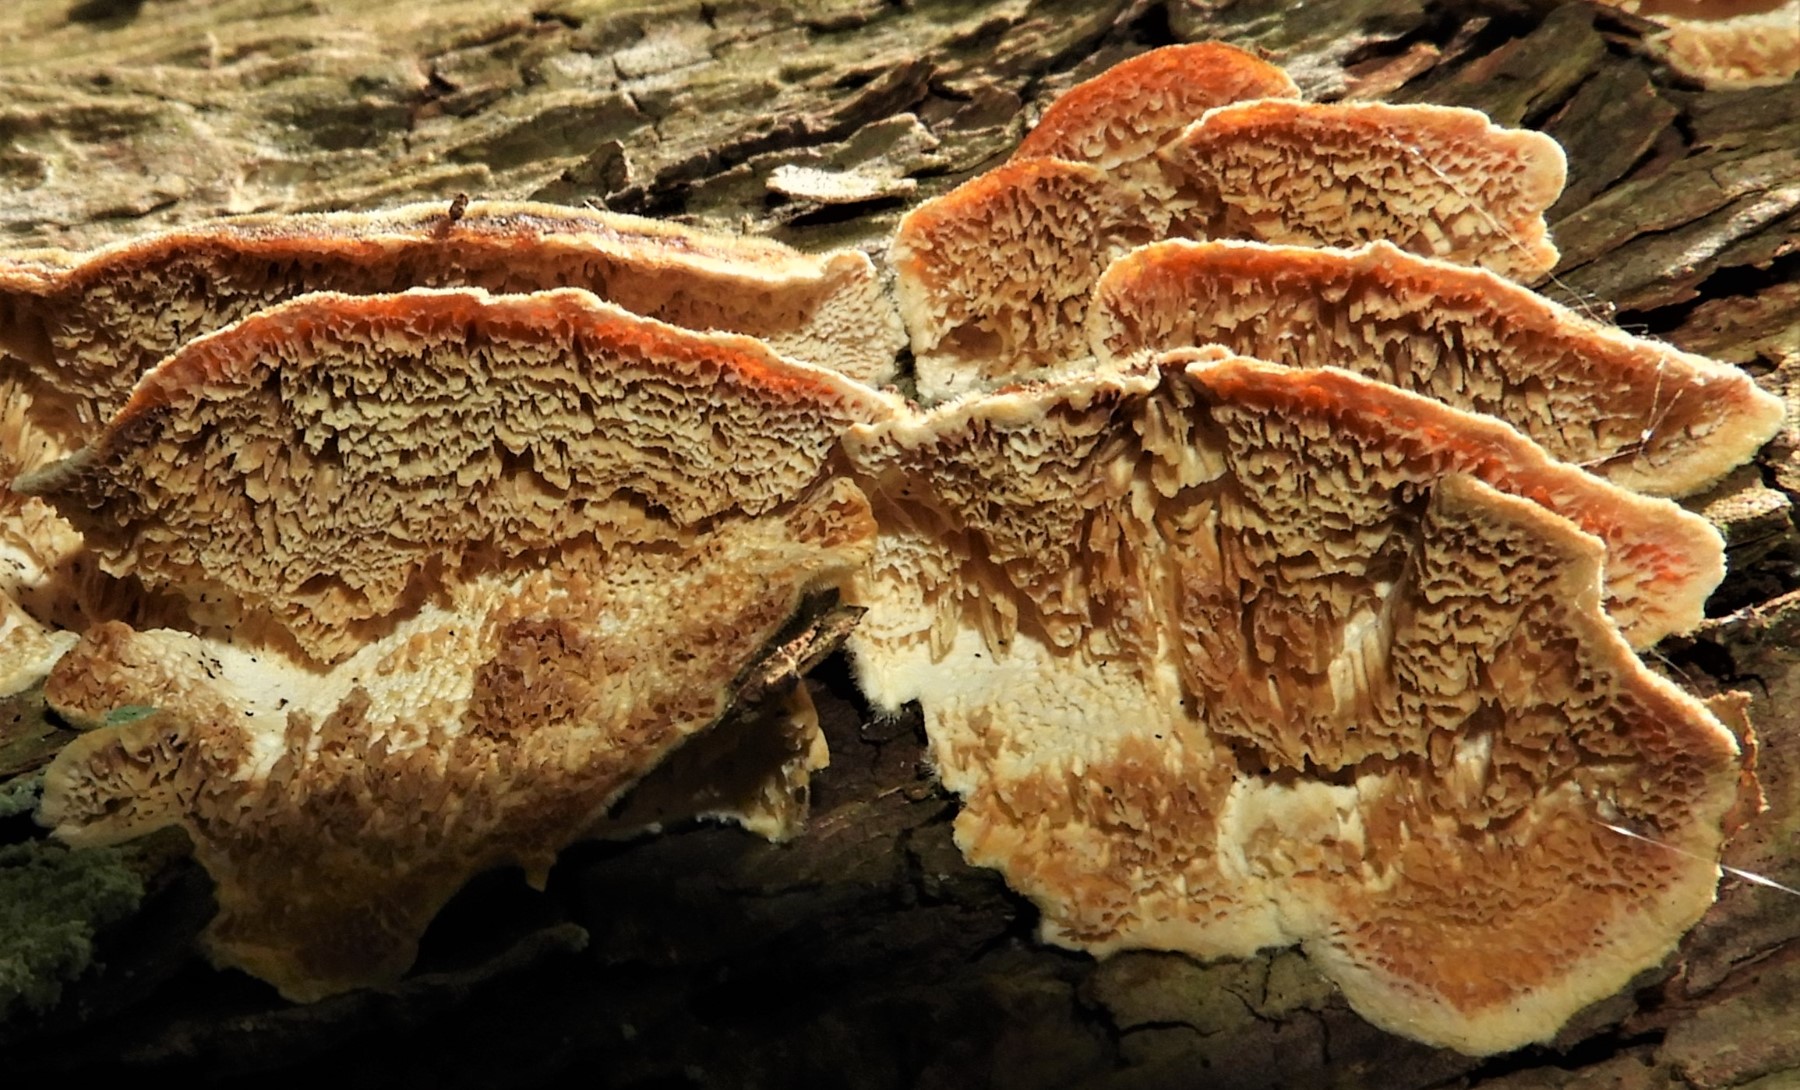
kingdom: Fungi
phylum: Basidiomycota
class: Agaricomycetes
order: Polyporales
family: Polyporaceae
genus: Trametes
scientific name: Trametes hirsuta
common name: håret læderporesvamp
